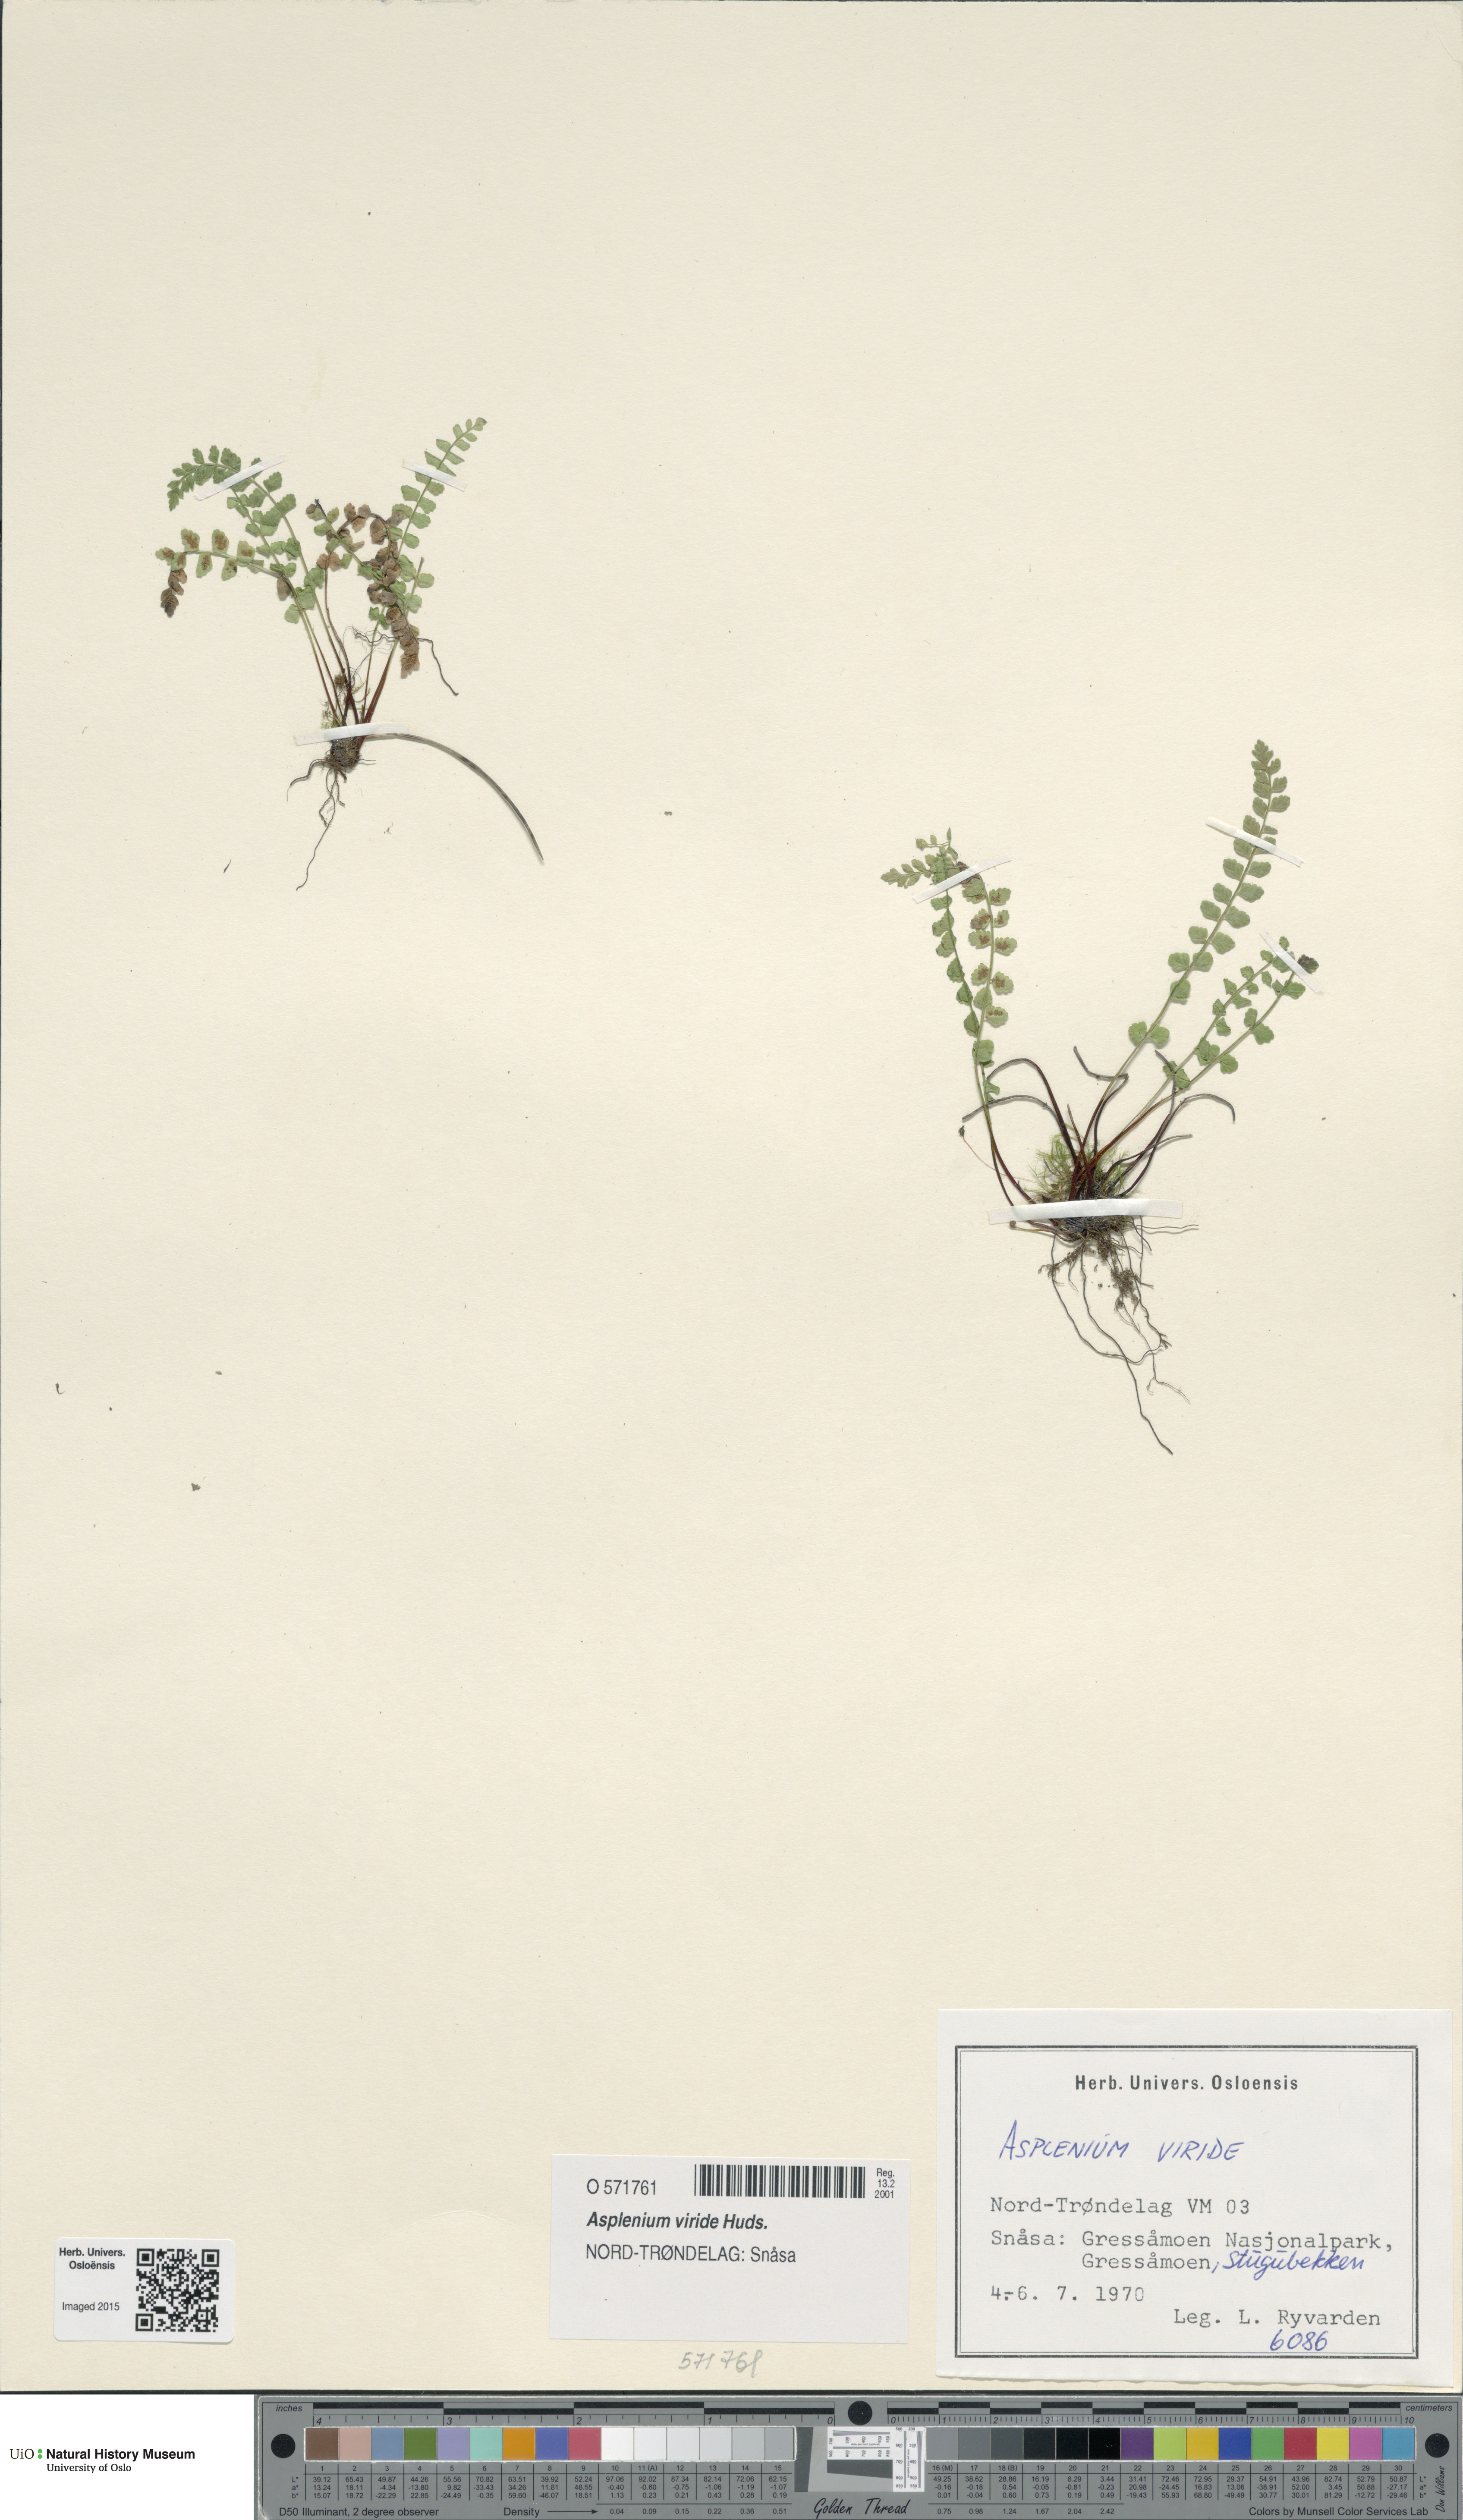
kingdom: Plantae
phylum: Tracheophyta
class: Polypodiopsida
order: Polypodiales
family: Aspleniaceae
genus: Asplenium
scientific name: Asplenium viride
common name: Green spleenwort
